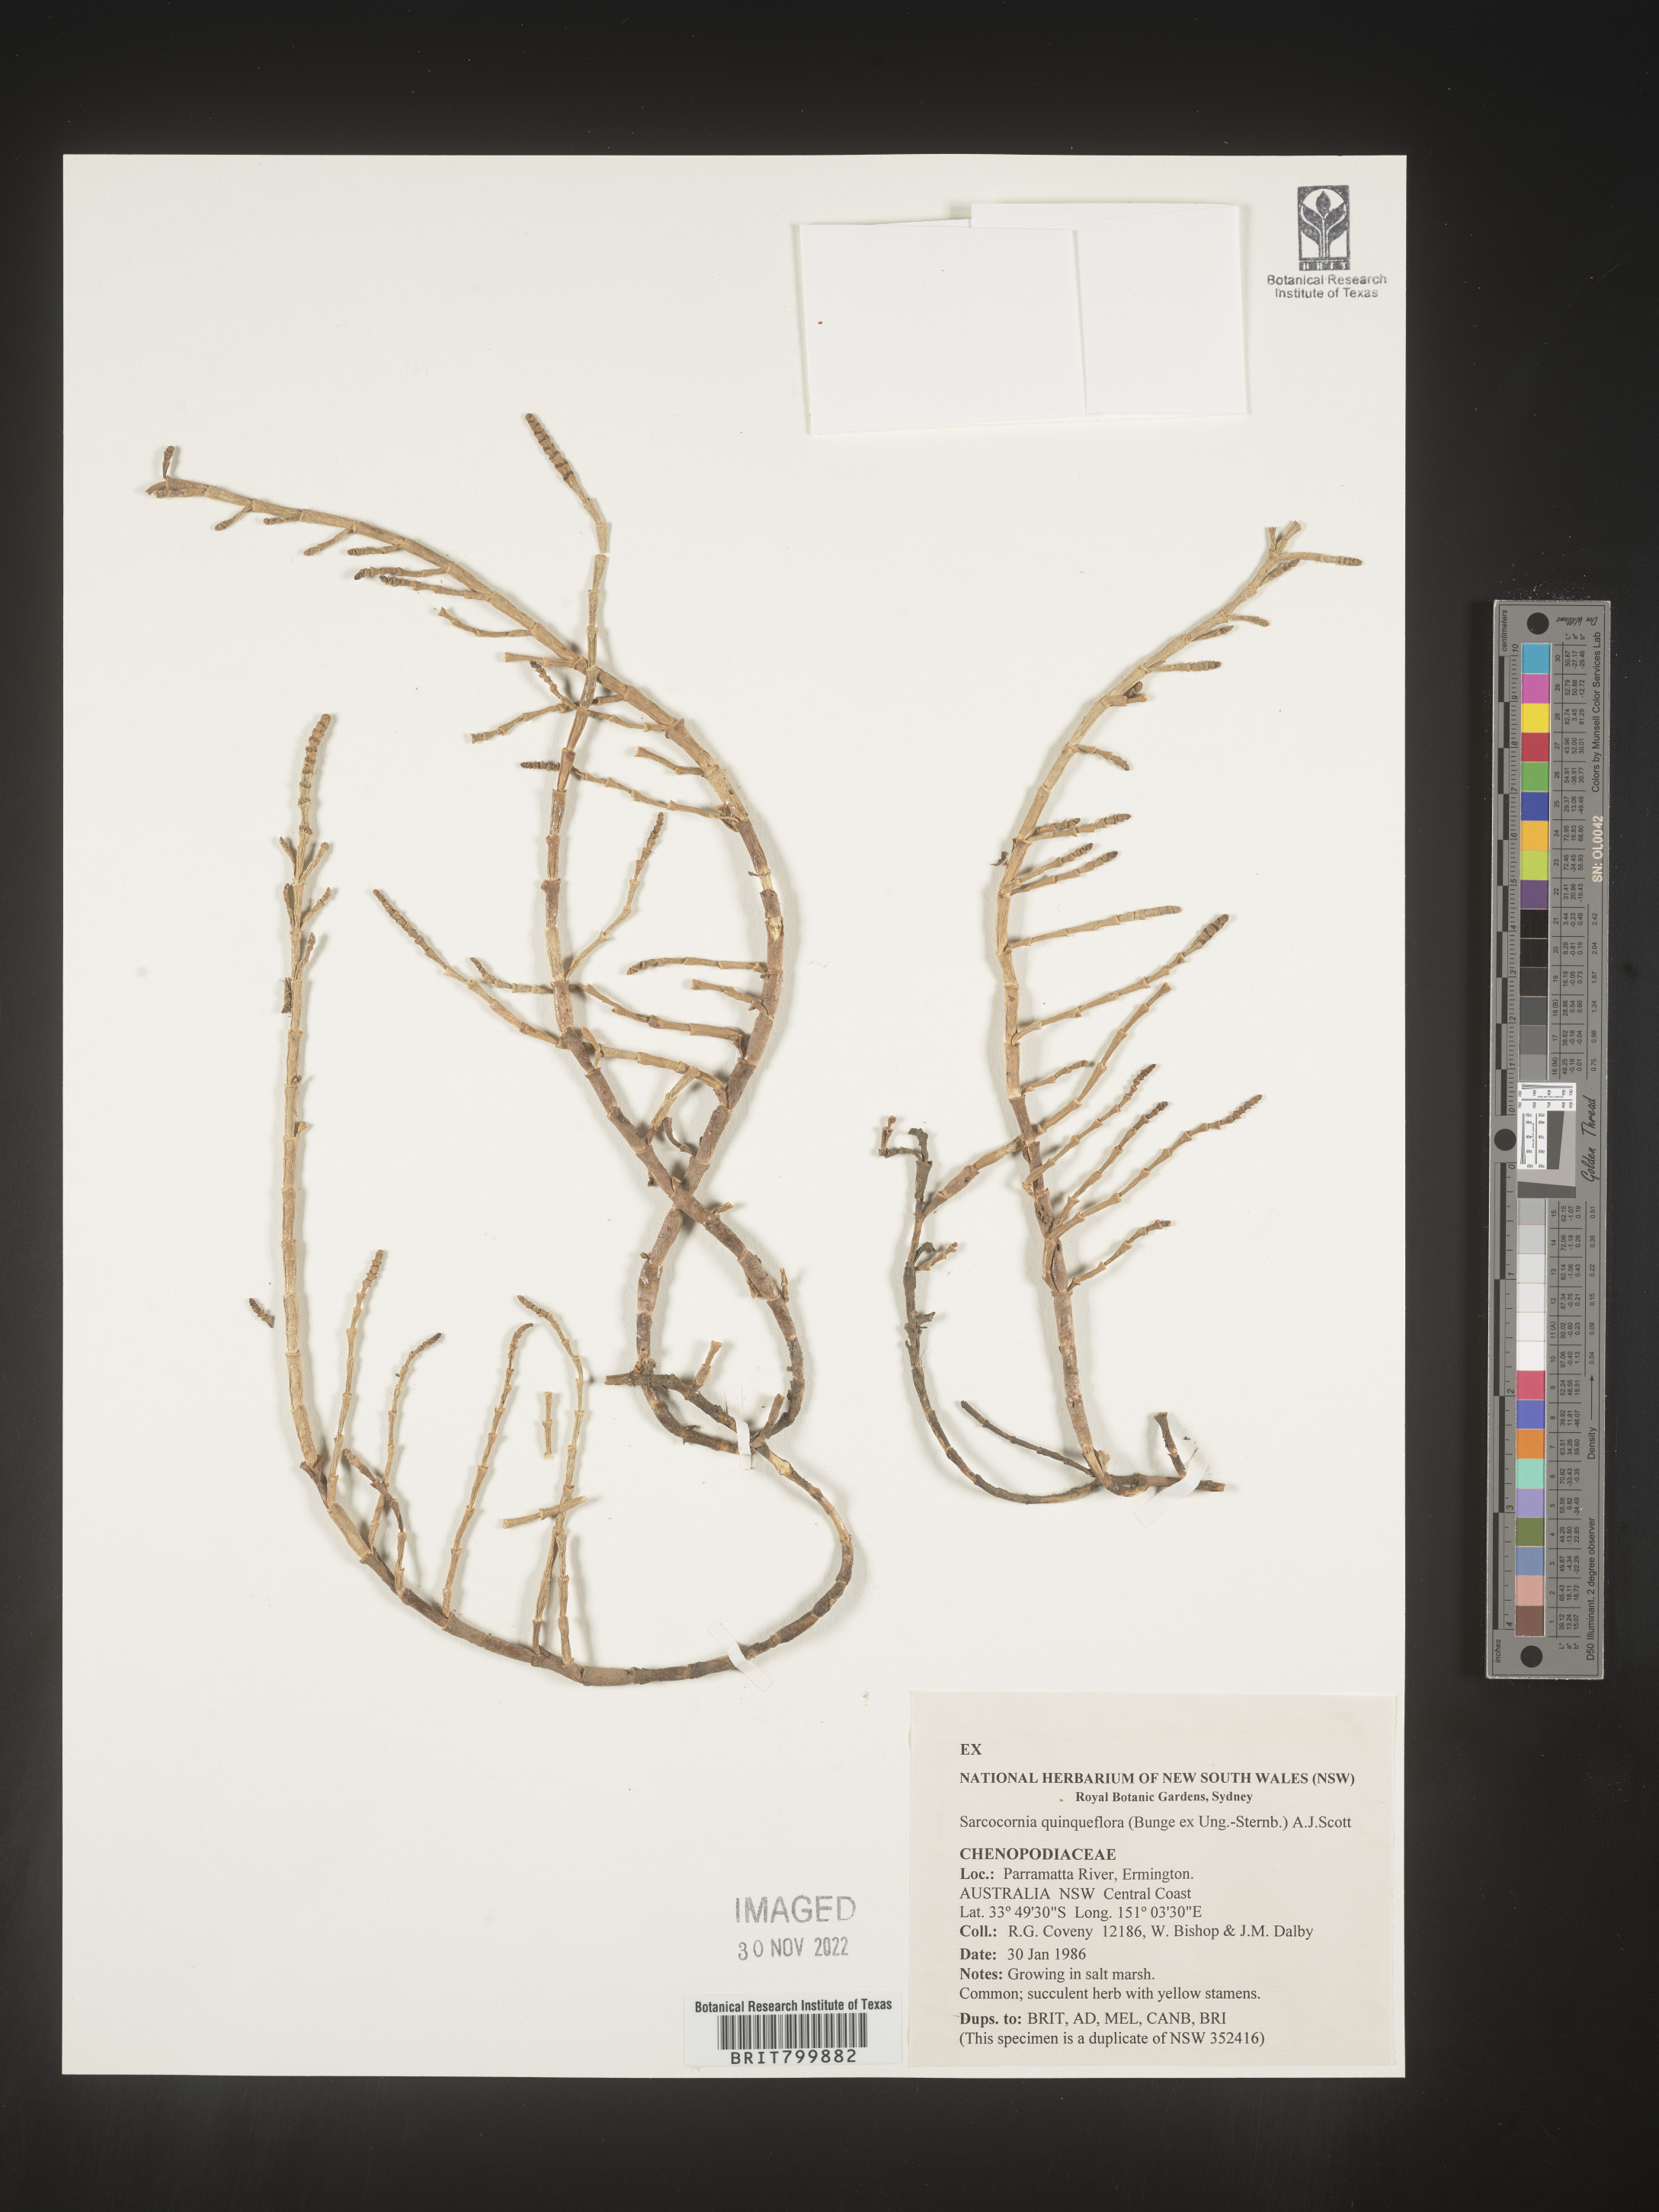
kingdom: Plantae
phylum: Tracheophyta
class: Magnoliopsida
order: Caryophyllales
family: Amaranthaceae
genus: Salicornia
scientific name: Salicornia
